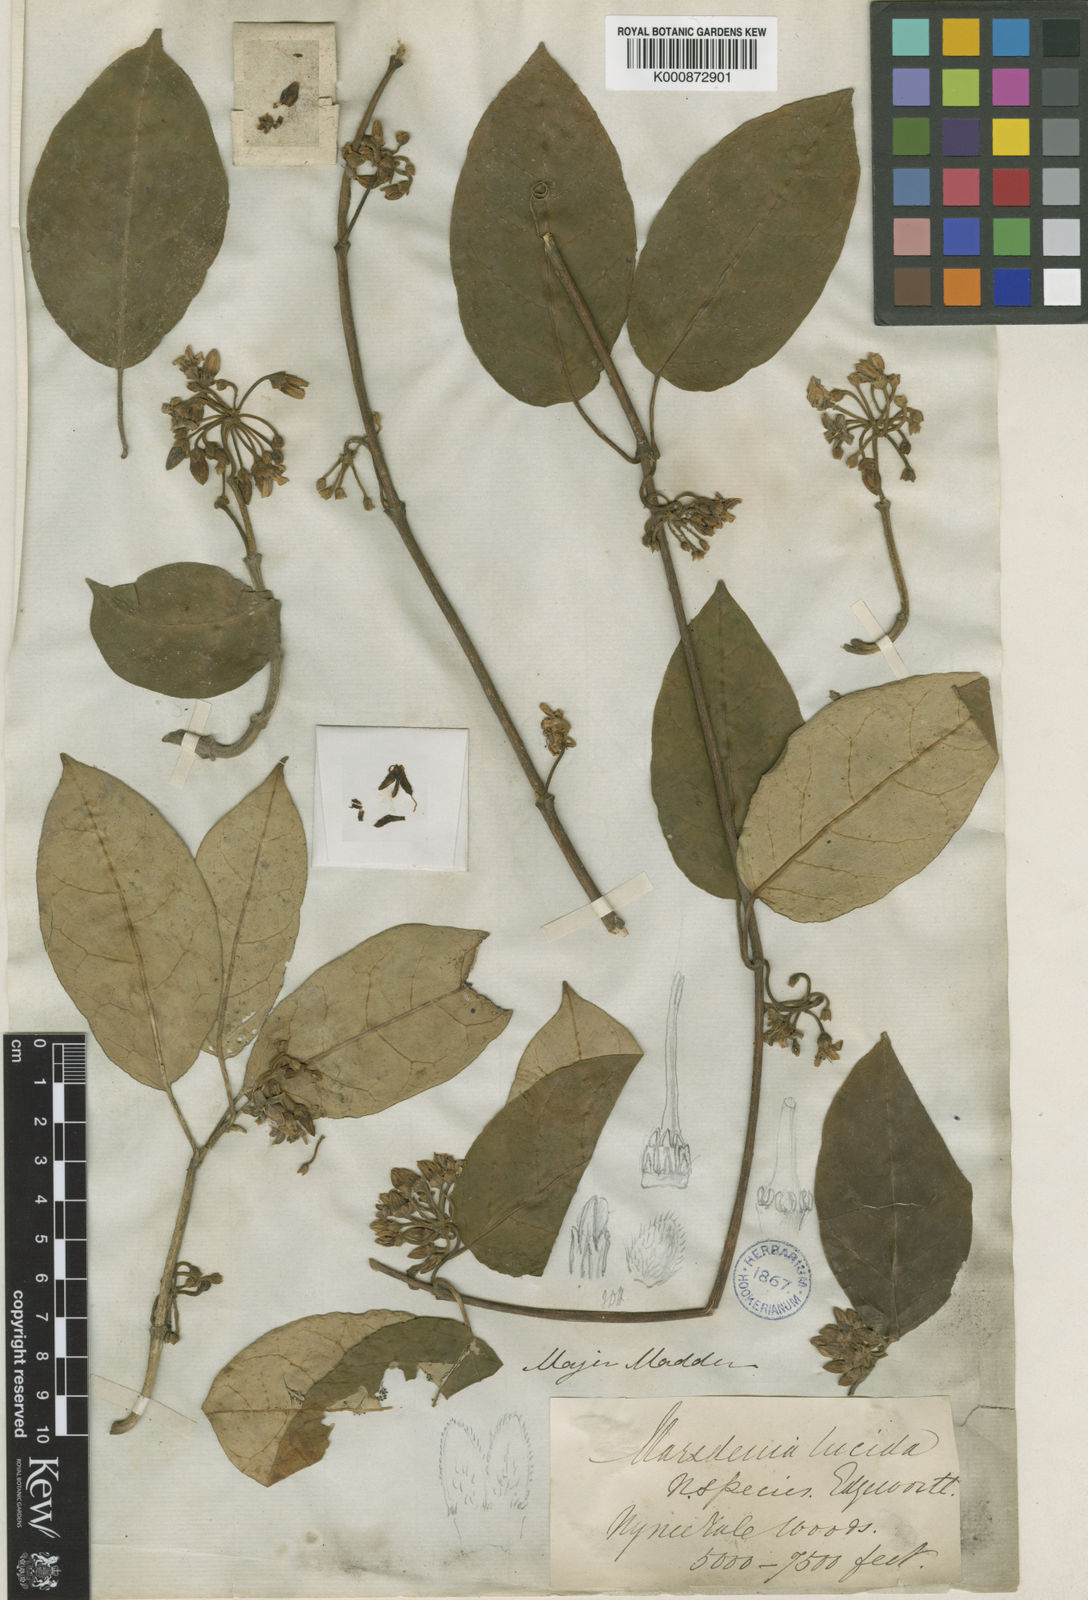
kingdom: Plantae
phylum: Tracheophyta
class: Magnoliopsida
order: Gentianales
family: Apocynaceae
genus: Sinomarsdenia
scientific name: Sinomarsdenia lucida
